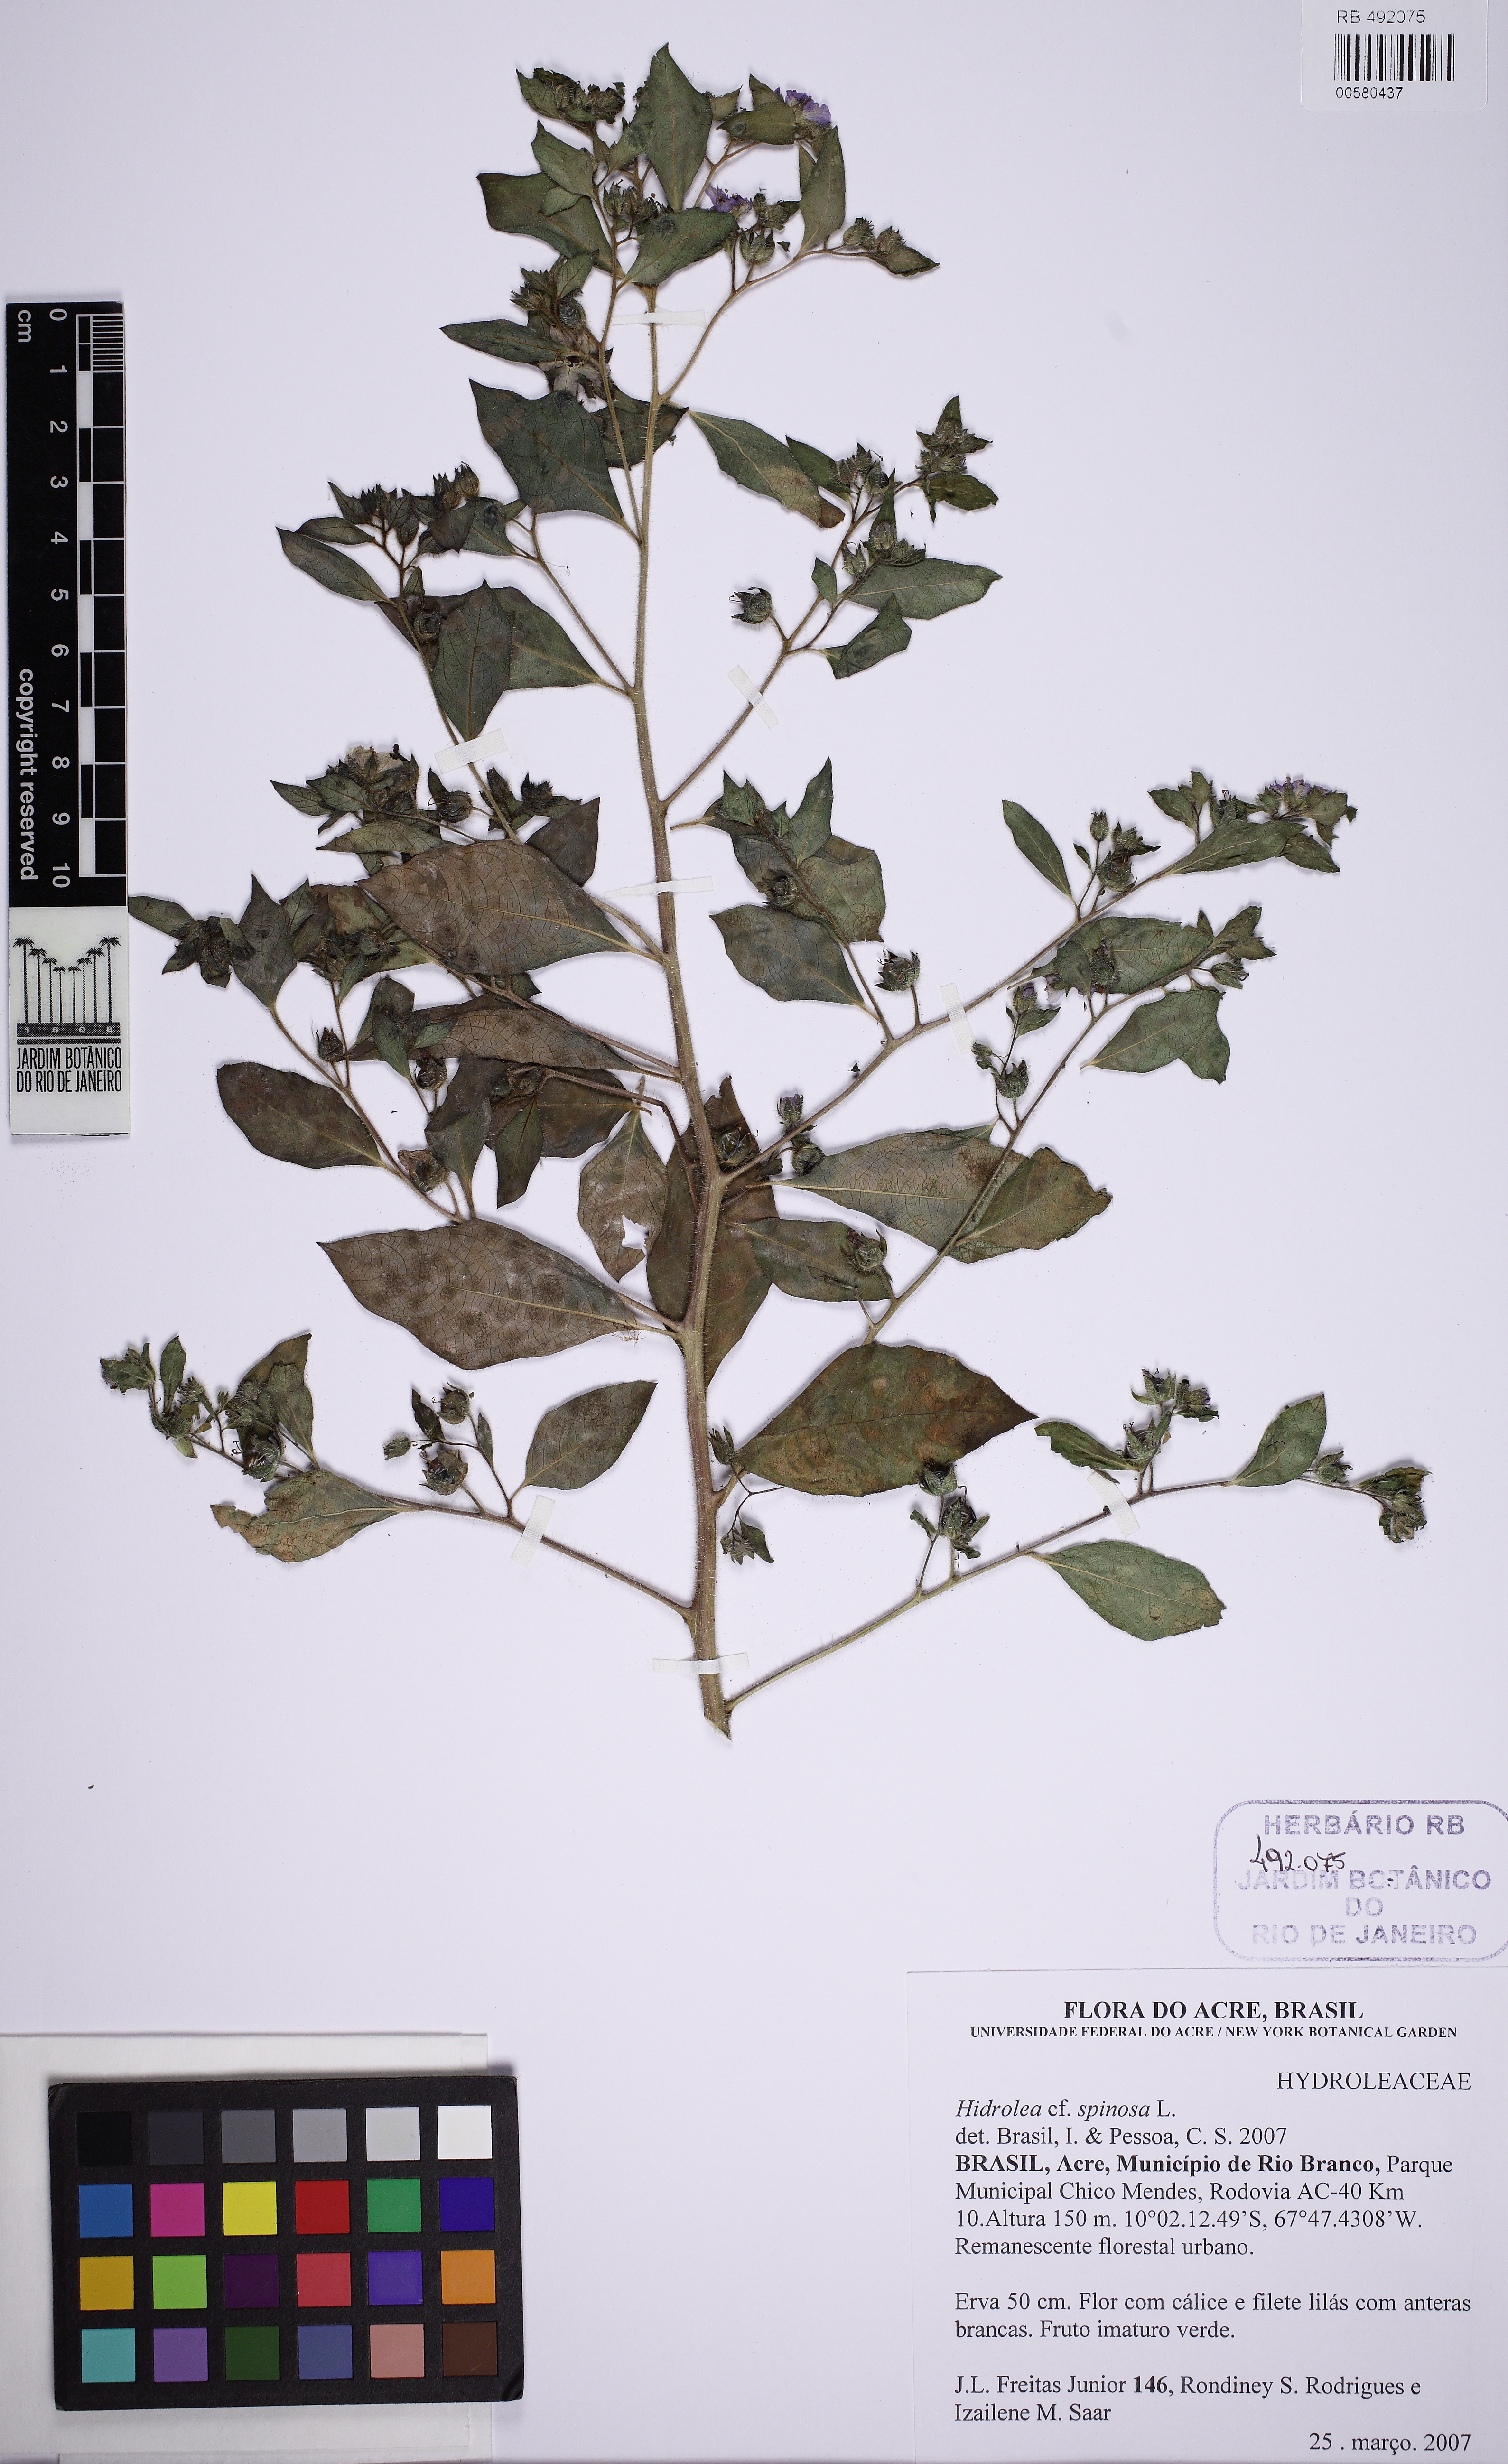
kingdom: Plantae
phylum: Tracheophyta
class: Magnoliopsida
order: Solanales
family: Hydroleaceae
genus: Hydrolea
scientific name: Hydrolea spinosa
